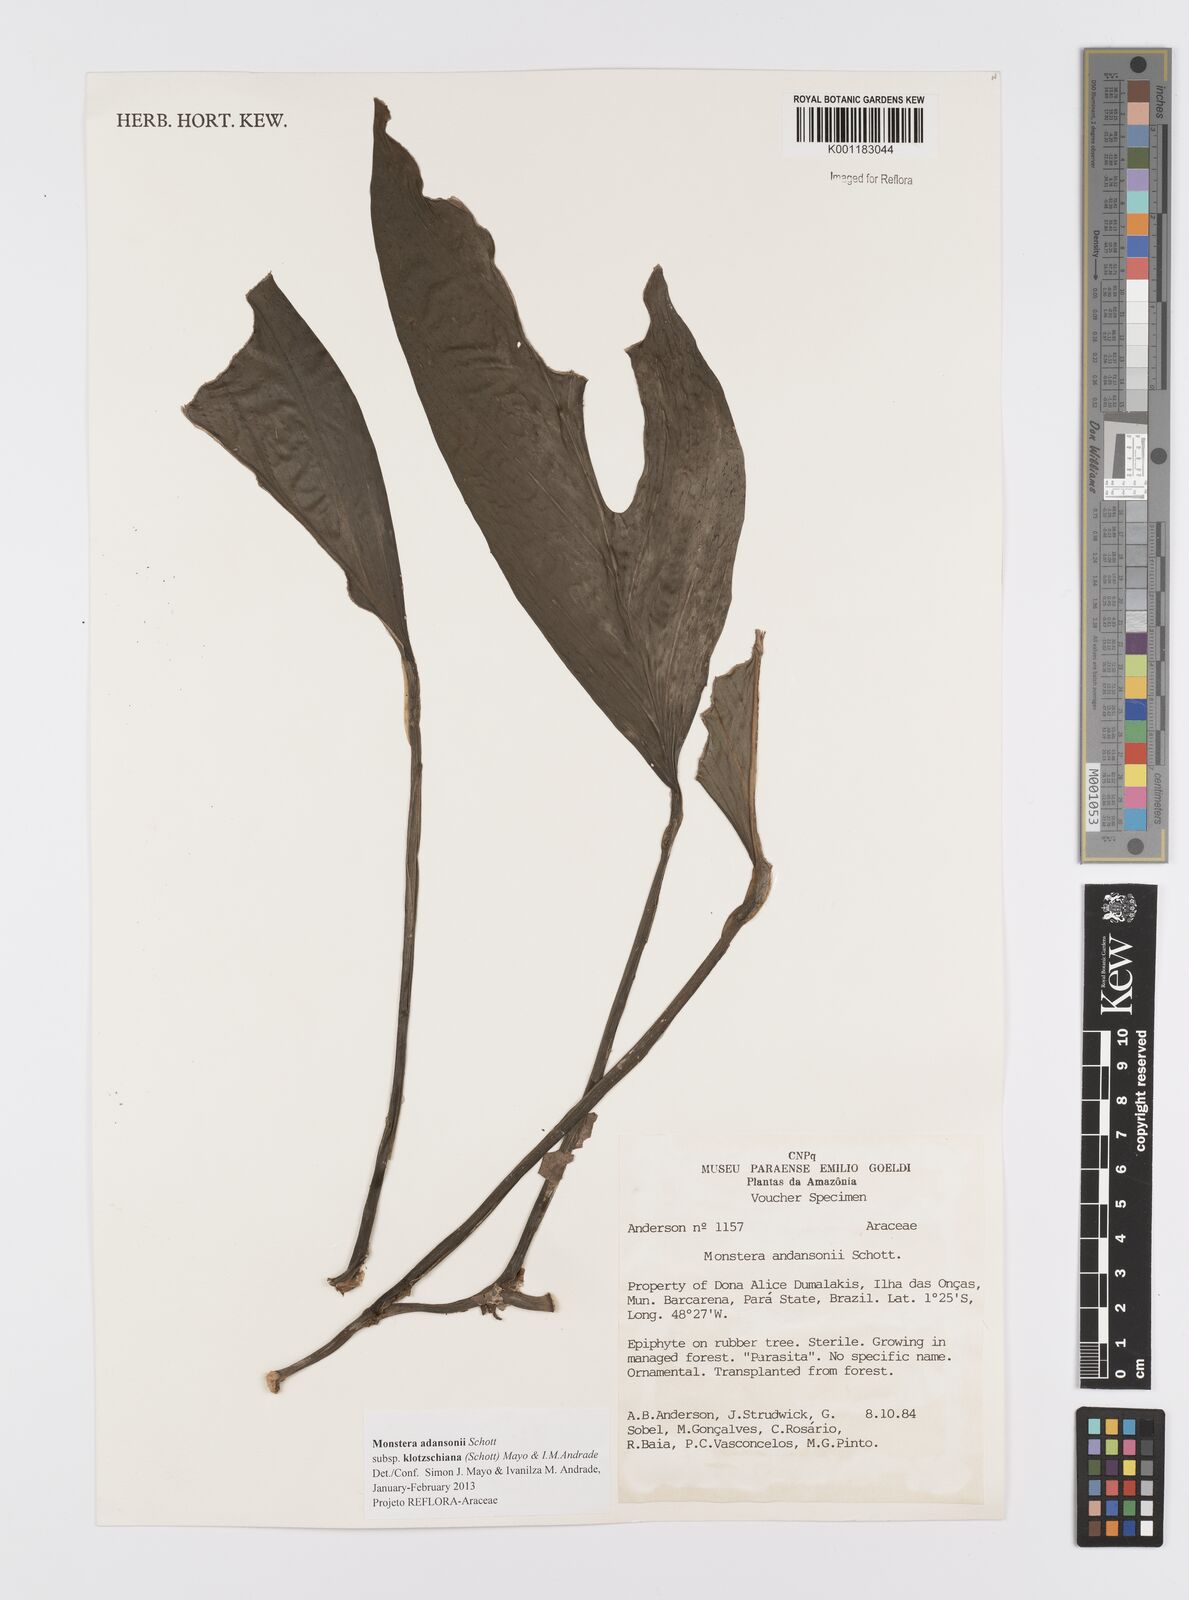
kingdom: Plantae
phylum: Tracheophyta
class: Liliopsida
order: Alismatales
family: Araceae
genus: Monstera
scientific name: Monstera adansonii
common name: Tarovine
